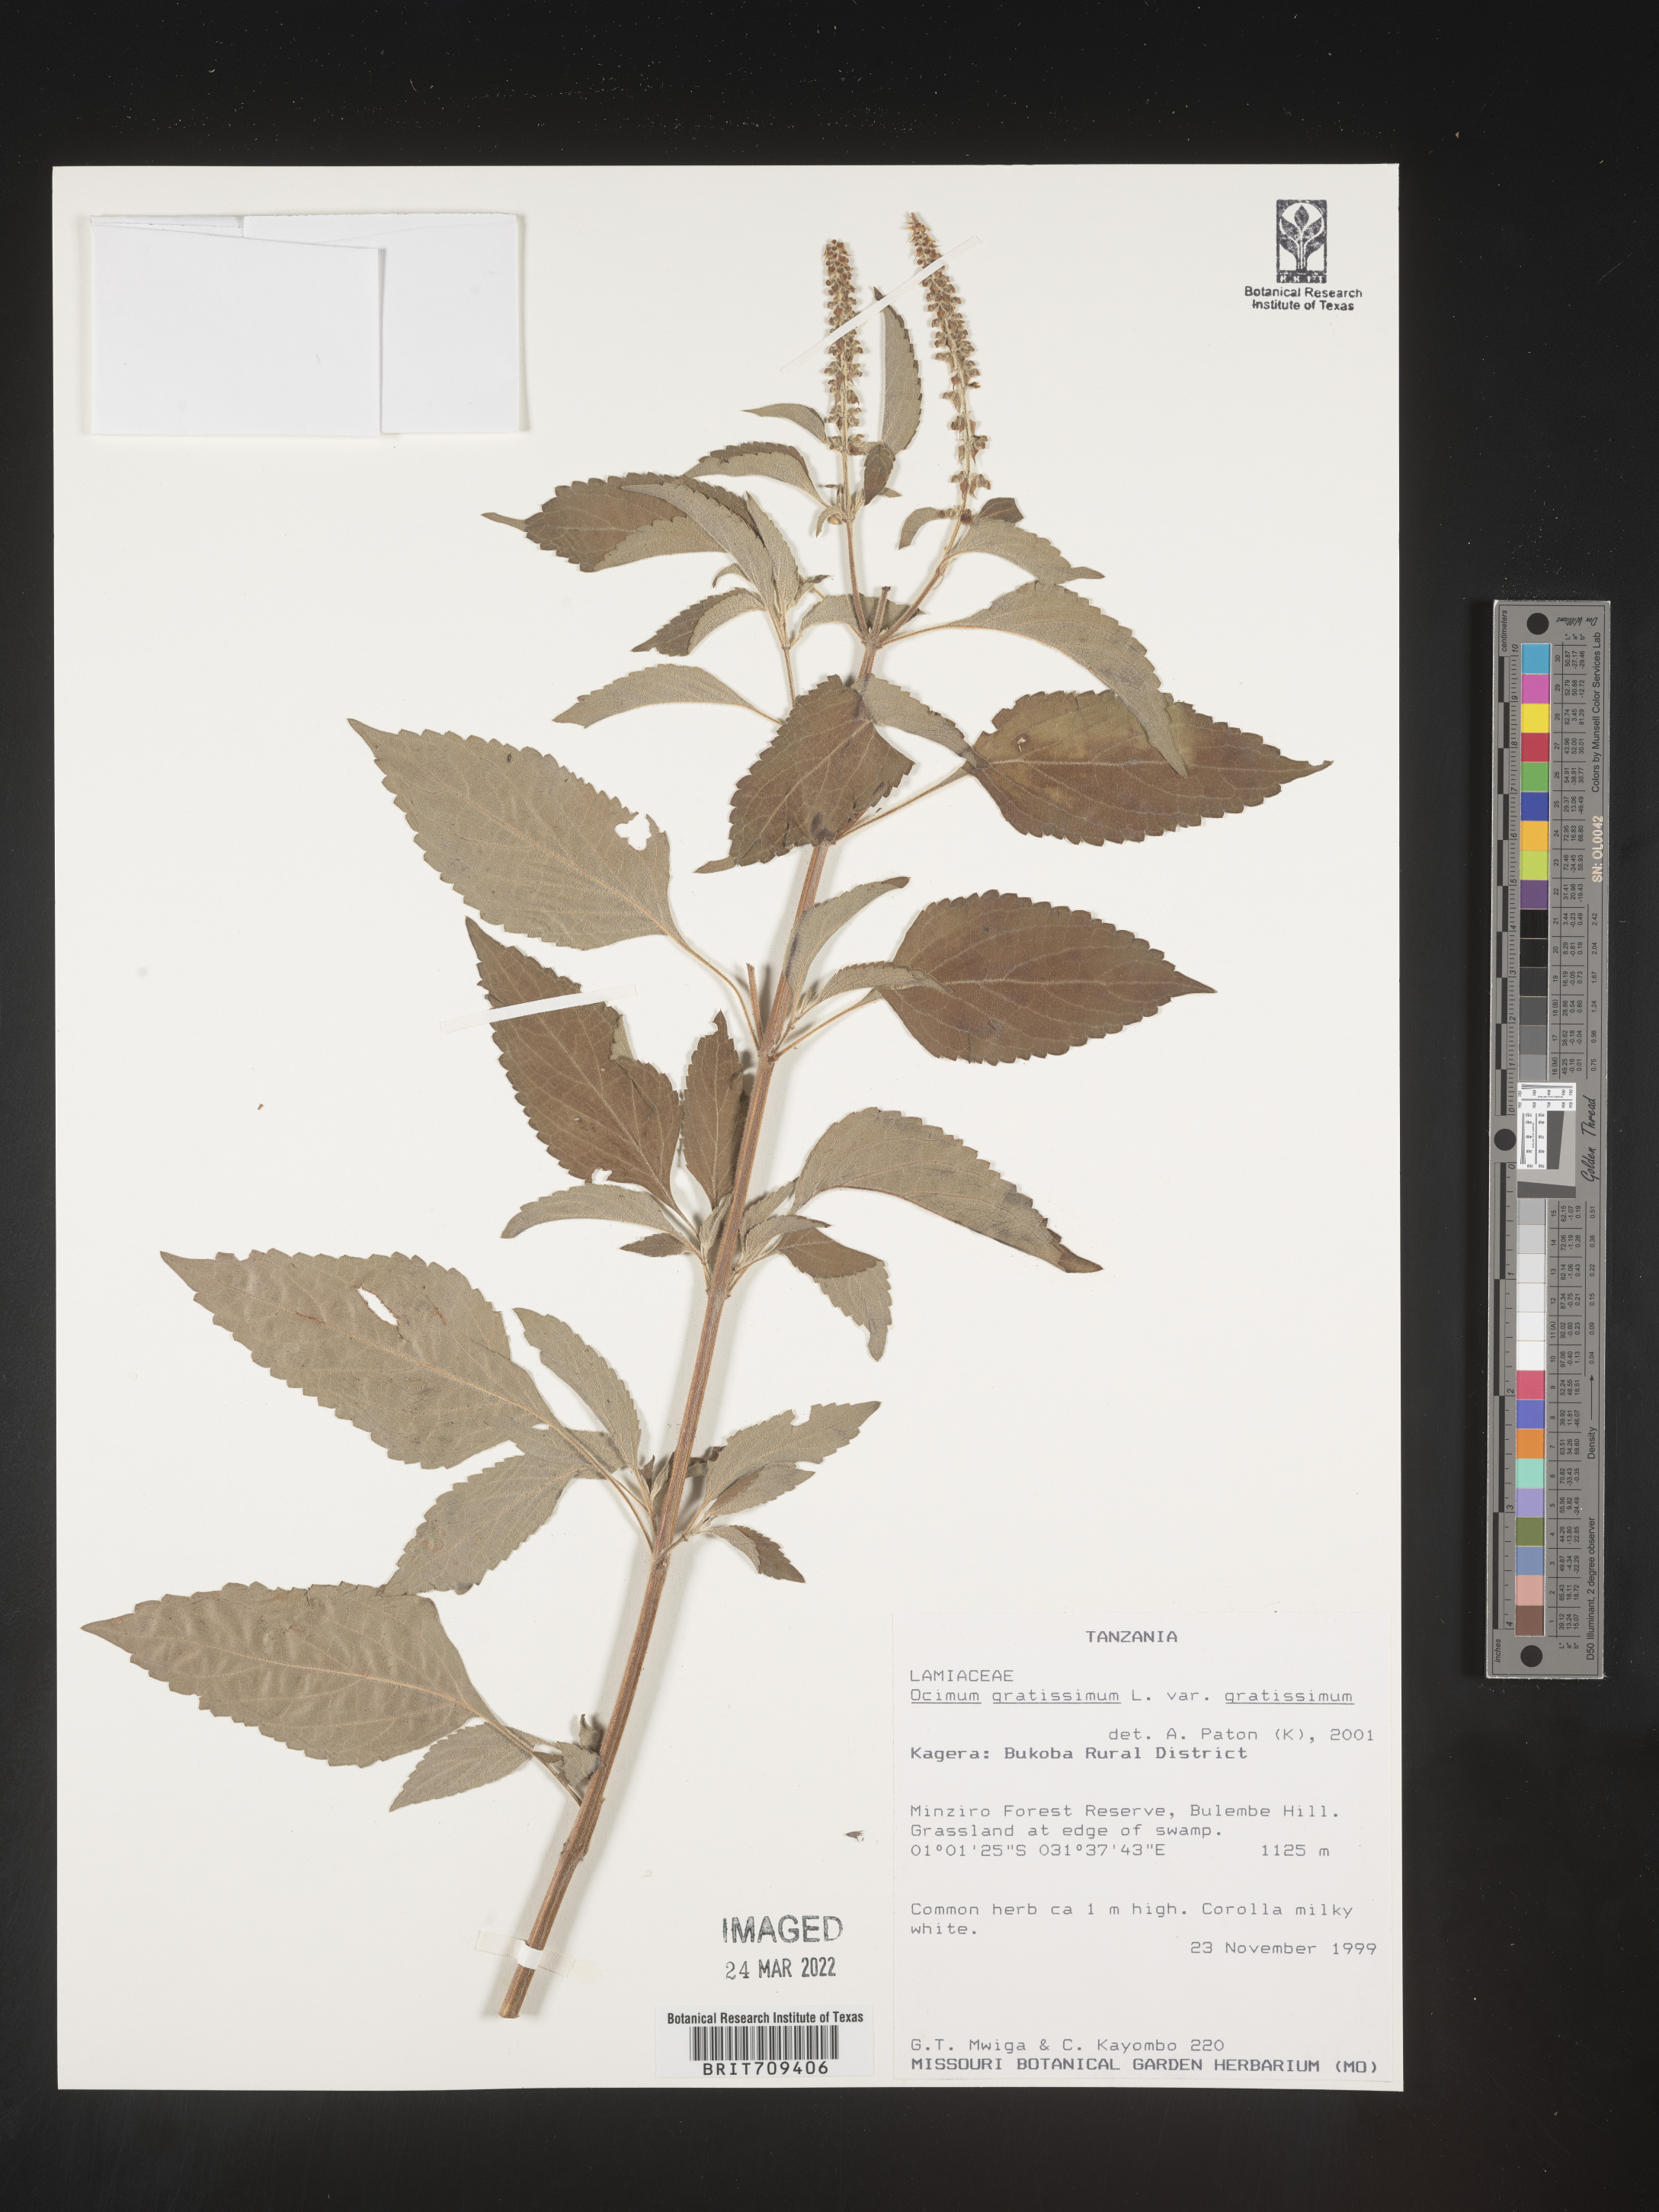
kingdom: Plantae
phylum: Tracheophyta
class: Magnoliopsida
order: Lamiales
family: Lamiaceae
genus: Ocimum
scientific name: Ocimum
